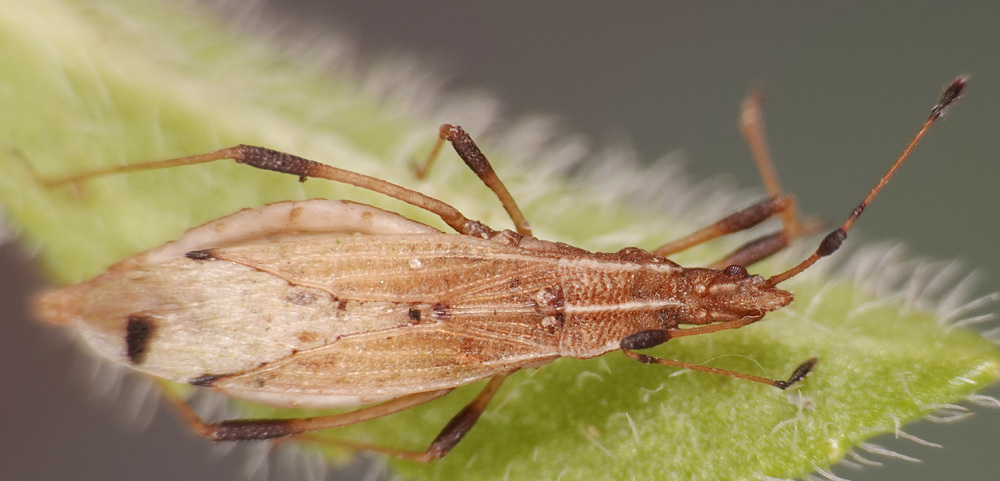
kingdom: Animalia
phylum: Arthropoda
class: Insecta
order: Hemiptera
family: Berytidae
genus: Berytinus
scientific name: Berytinus crassipes
